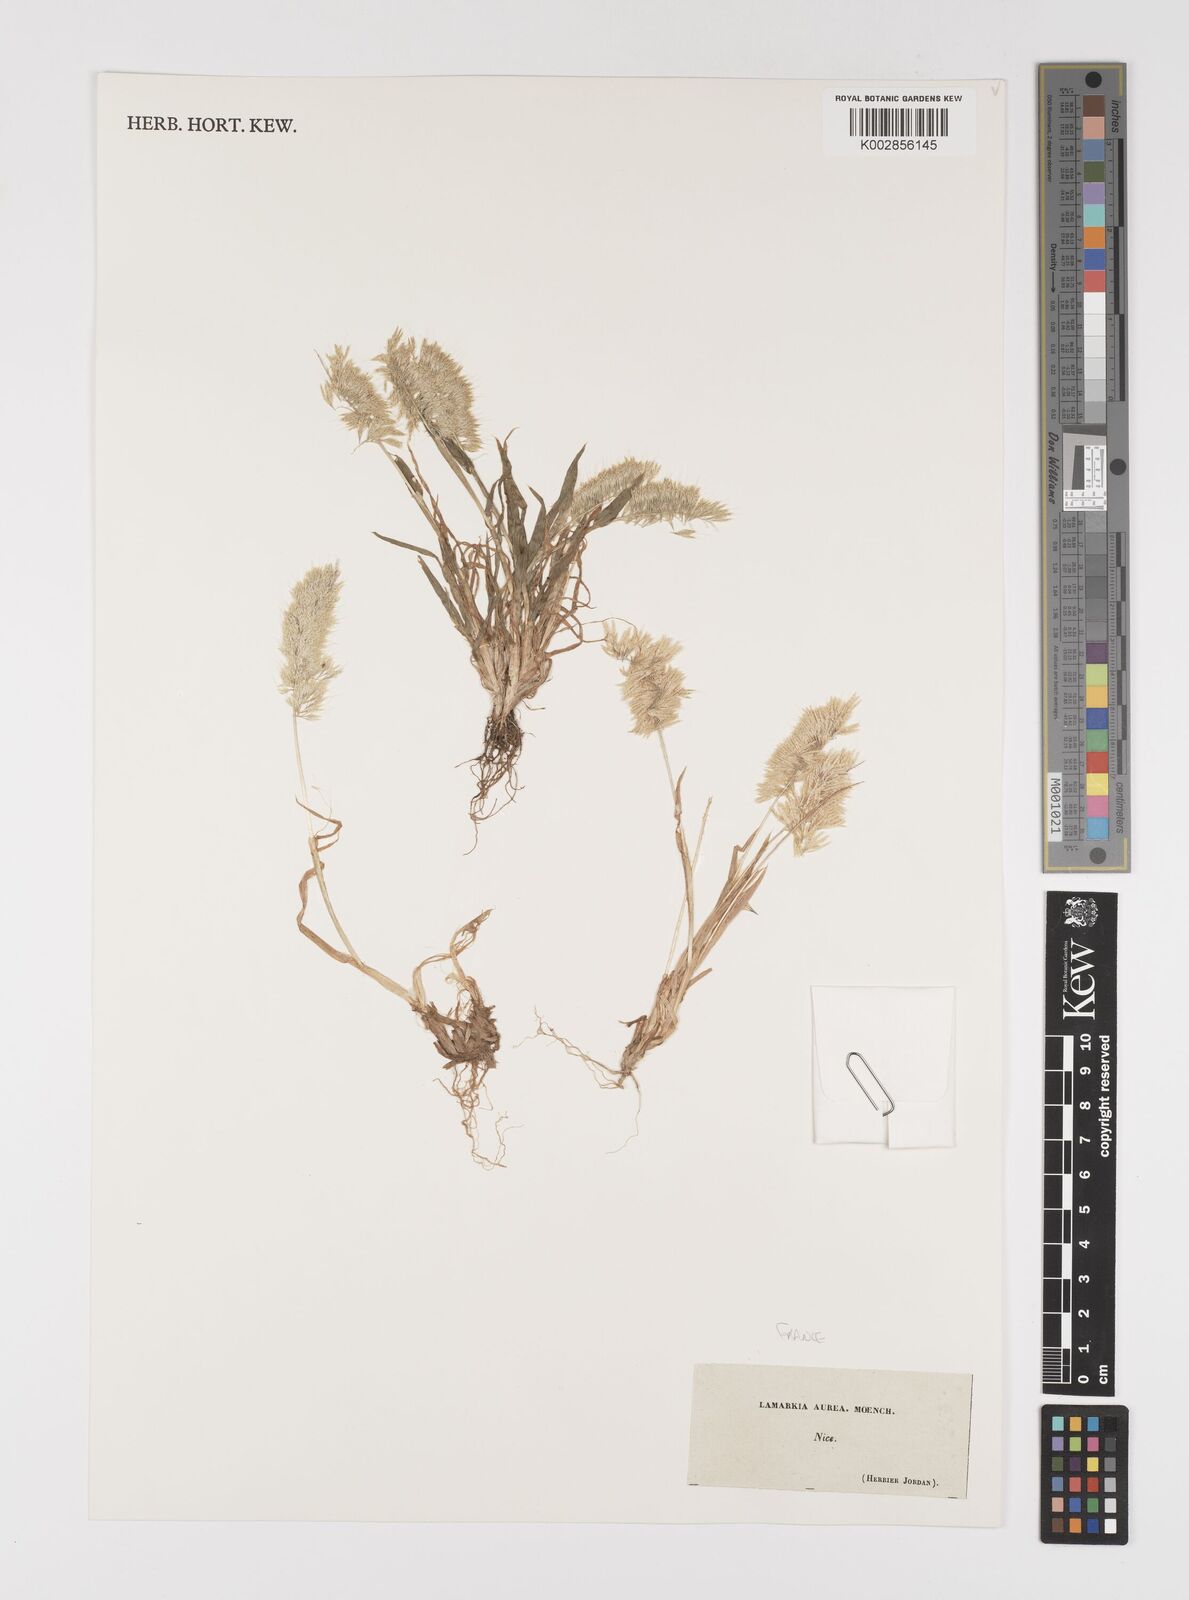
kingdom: Plantae
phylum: Tracheophyta
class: Liliopsida
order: Poales
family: Poaceae
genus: Lamarckia
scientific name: Lamarckia aurea
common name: Golden dog's-tail
